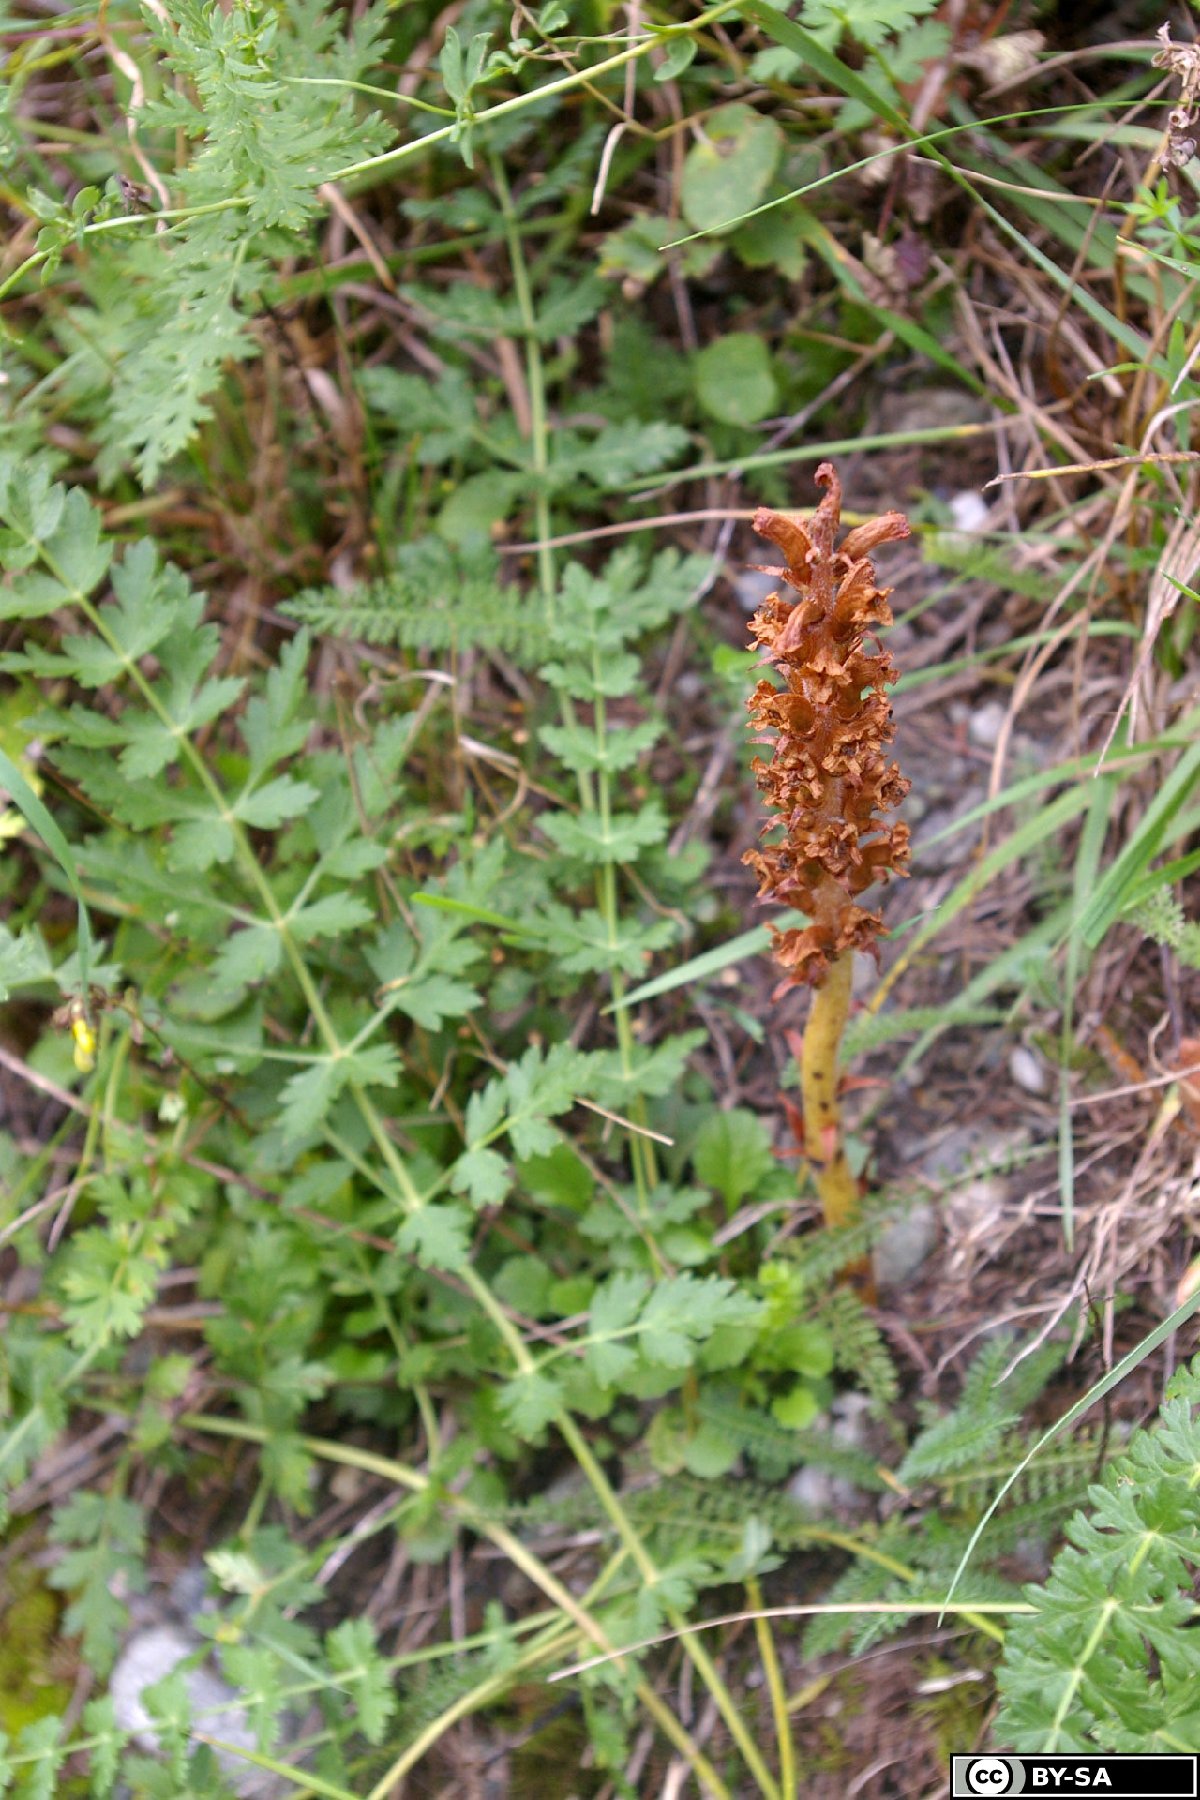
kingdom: Plantae
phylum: Tracheophyta
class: Magnoliopsida
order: Lamiales
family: Orobanchaceae
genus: Orobanche
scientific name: Orobanche alsatica
